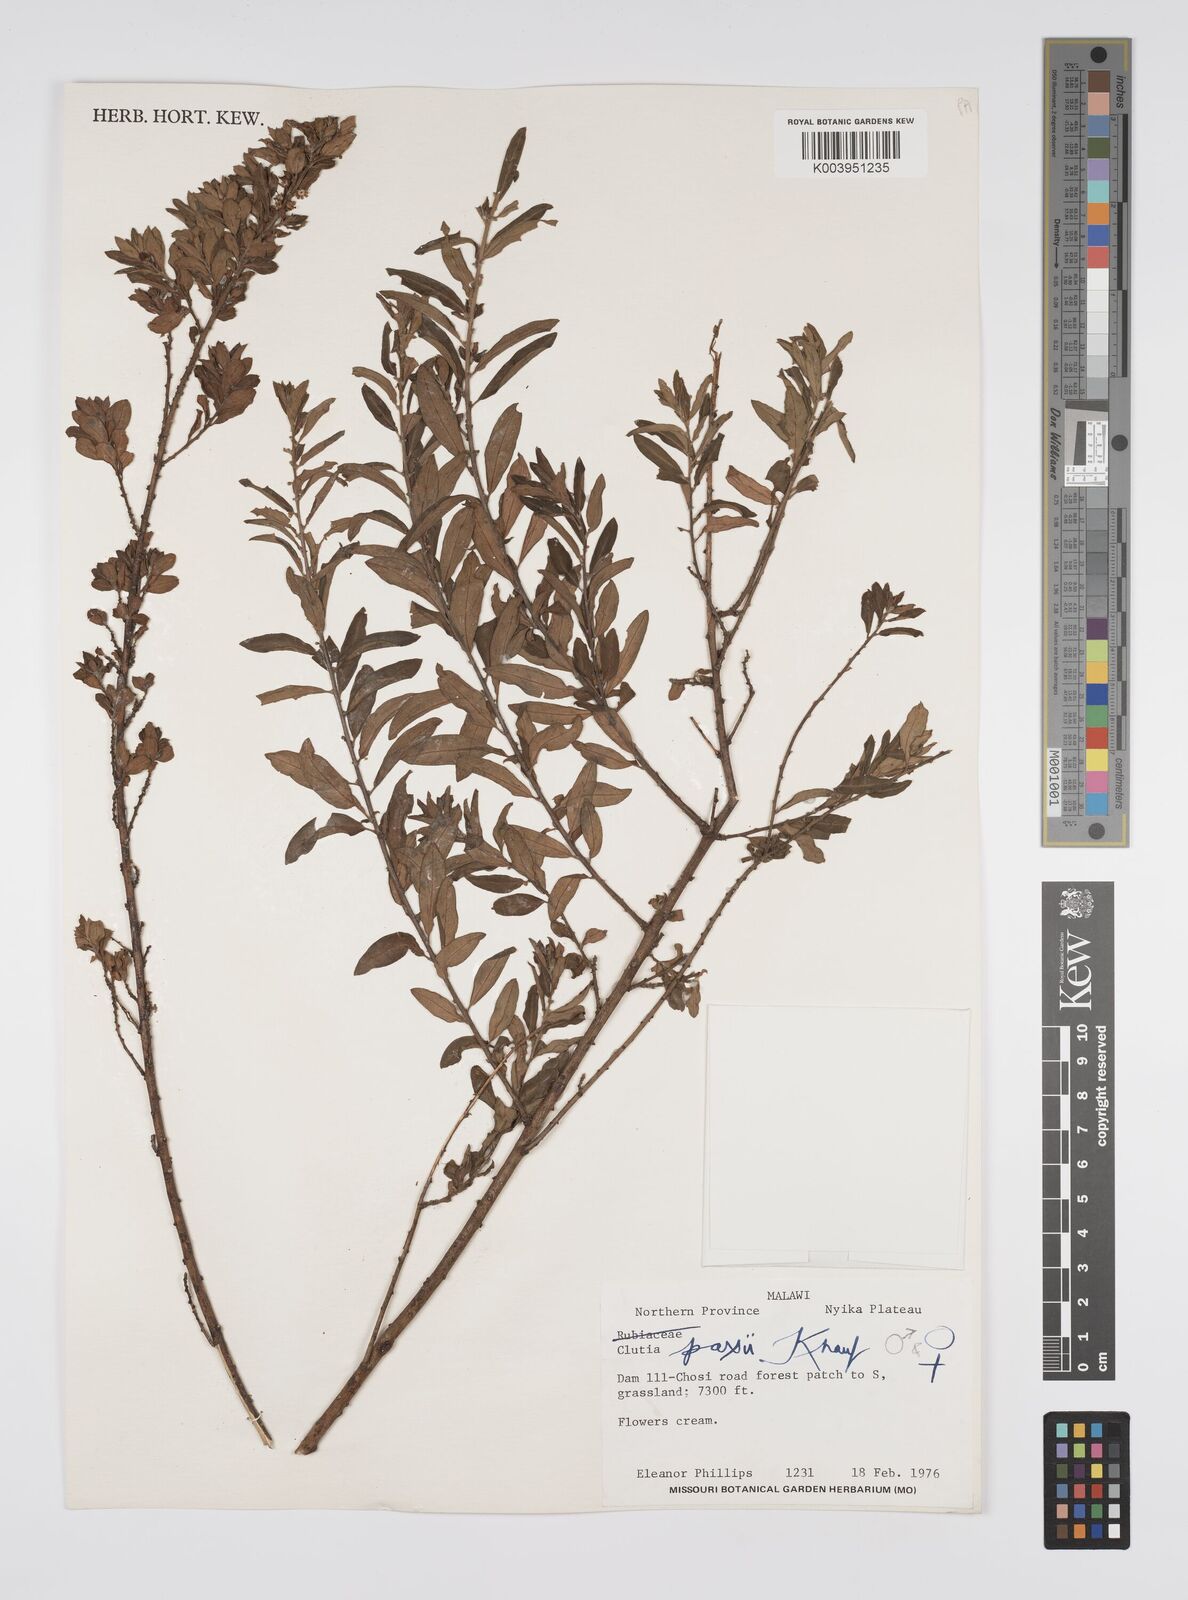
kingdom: Plantae
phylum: Tracheophyta
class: Magnoliopsida
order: Malpighiales
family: Peraceae
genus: Clutia
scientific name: Clutia paxii
